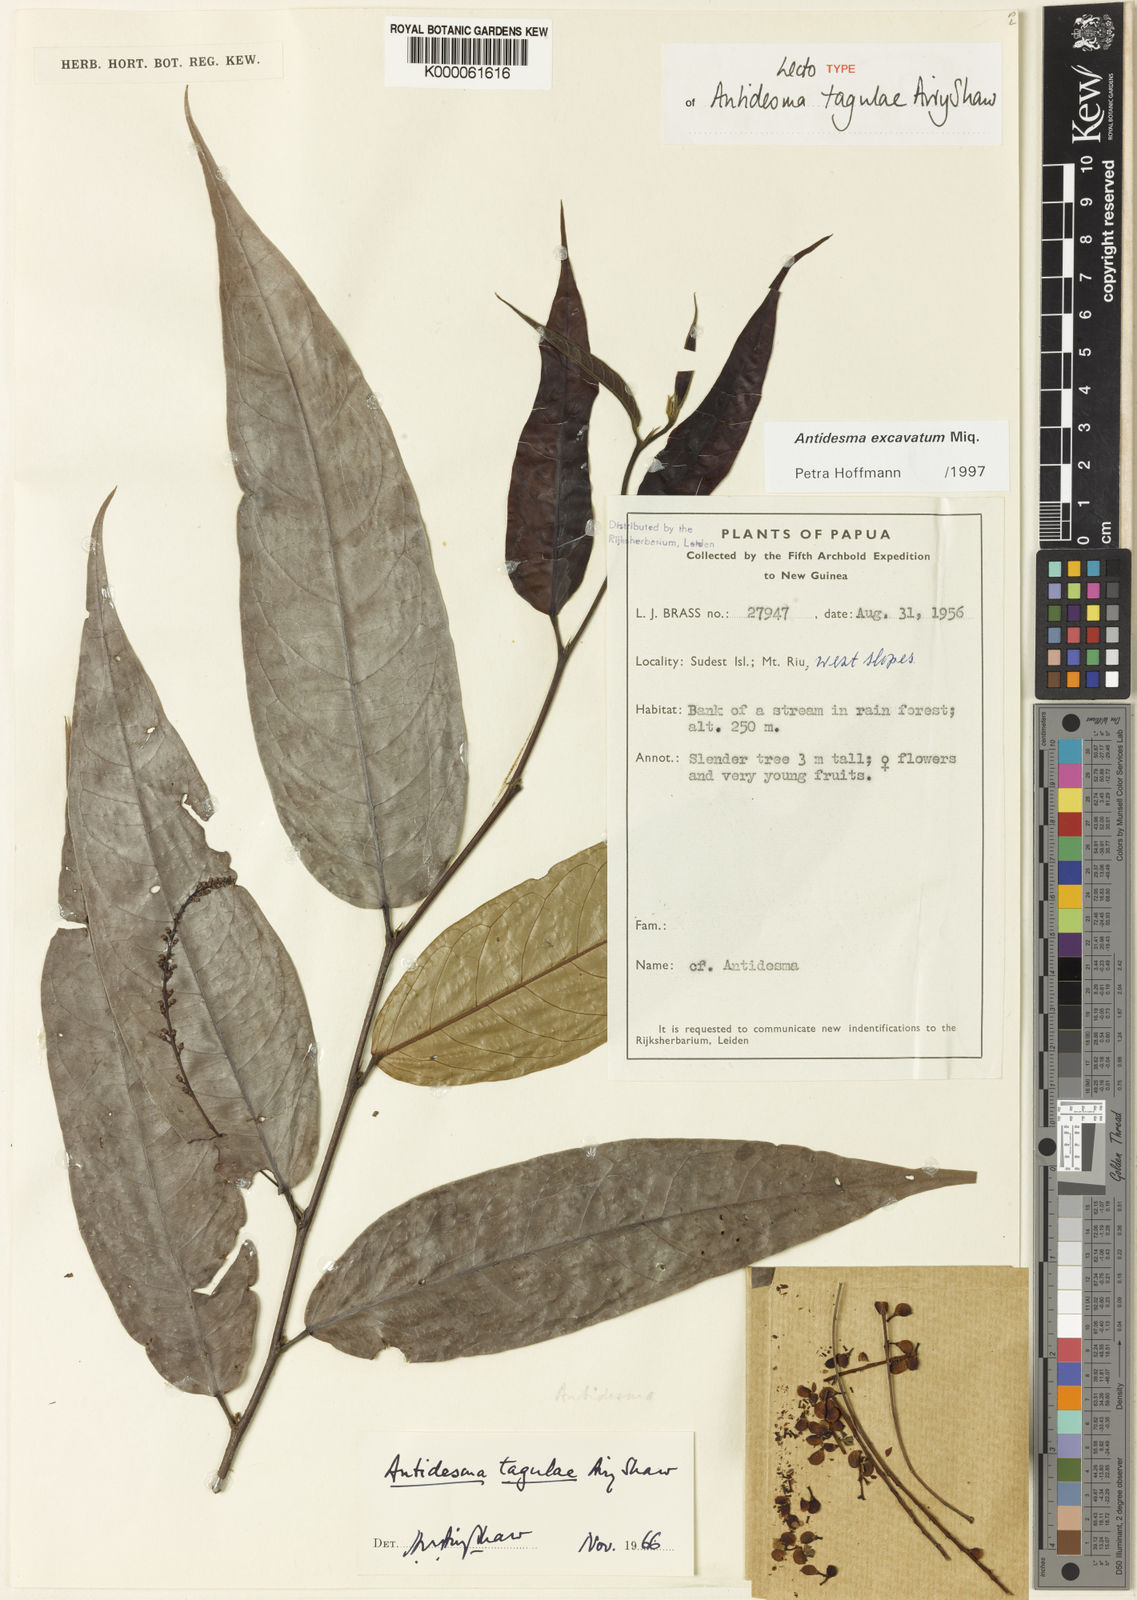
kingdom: Plantae
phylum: Tracheophyta
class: Magnoliopsida
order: Malpighiales
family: Phyllanthaceae
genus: Antidesma
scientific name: Antidesma excavatum
